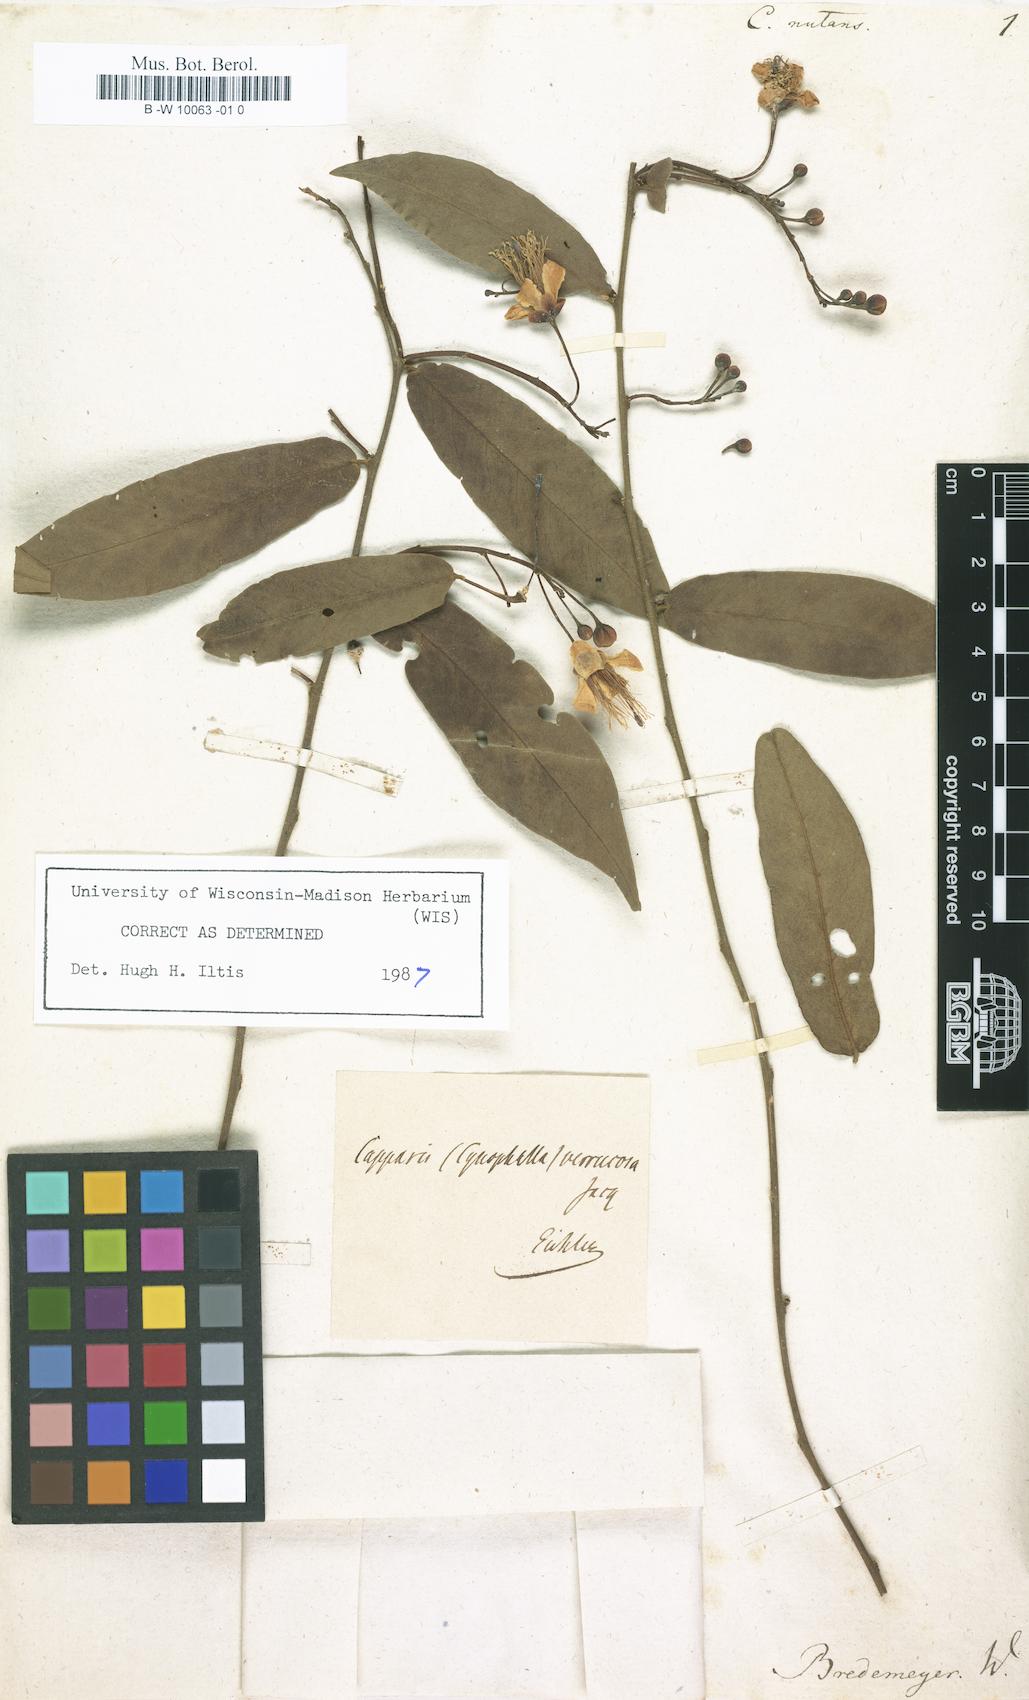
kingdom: Plantae
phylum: Tracheophyta
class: Magnoliopsida
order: Brassicales
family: Capparaceae
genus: Capparis
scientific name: Capparis
